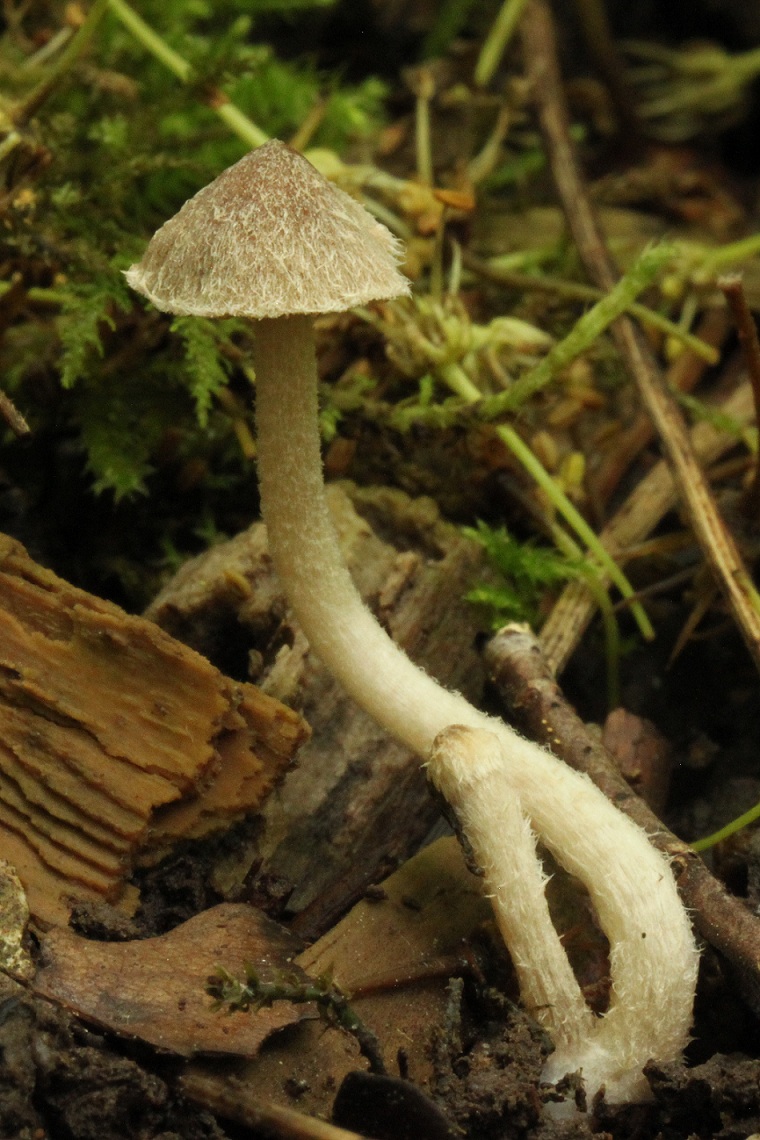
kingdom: Fungi
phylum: Basidiomycota
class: Agaricomycetes
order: Agaricales
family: Psathyrellaceae
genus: Coprinopsis
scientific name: Coprinopsis canoceps
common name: gråhåret blækhat
